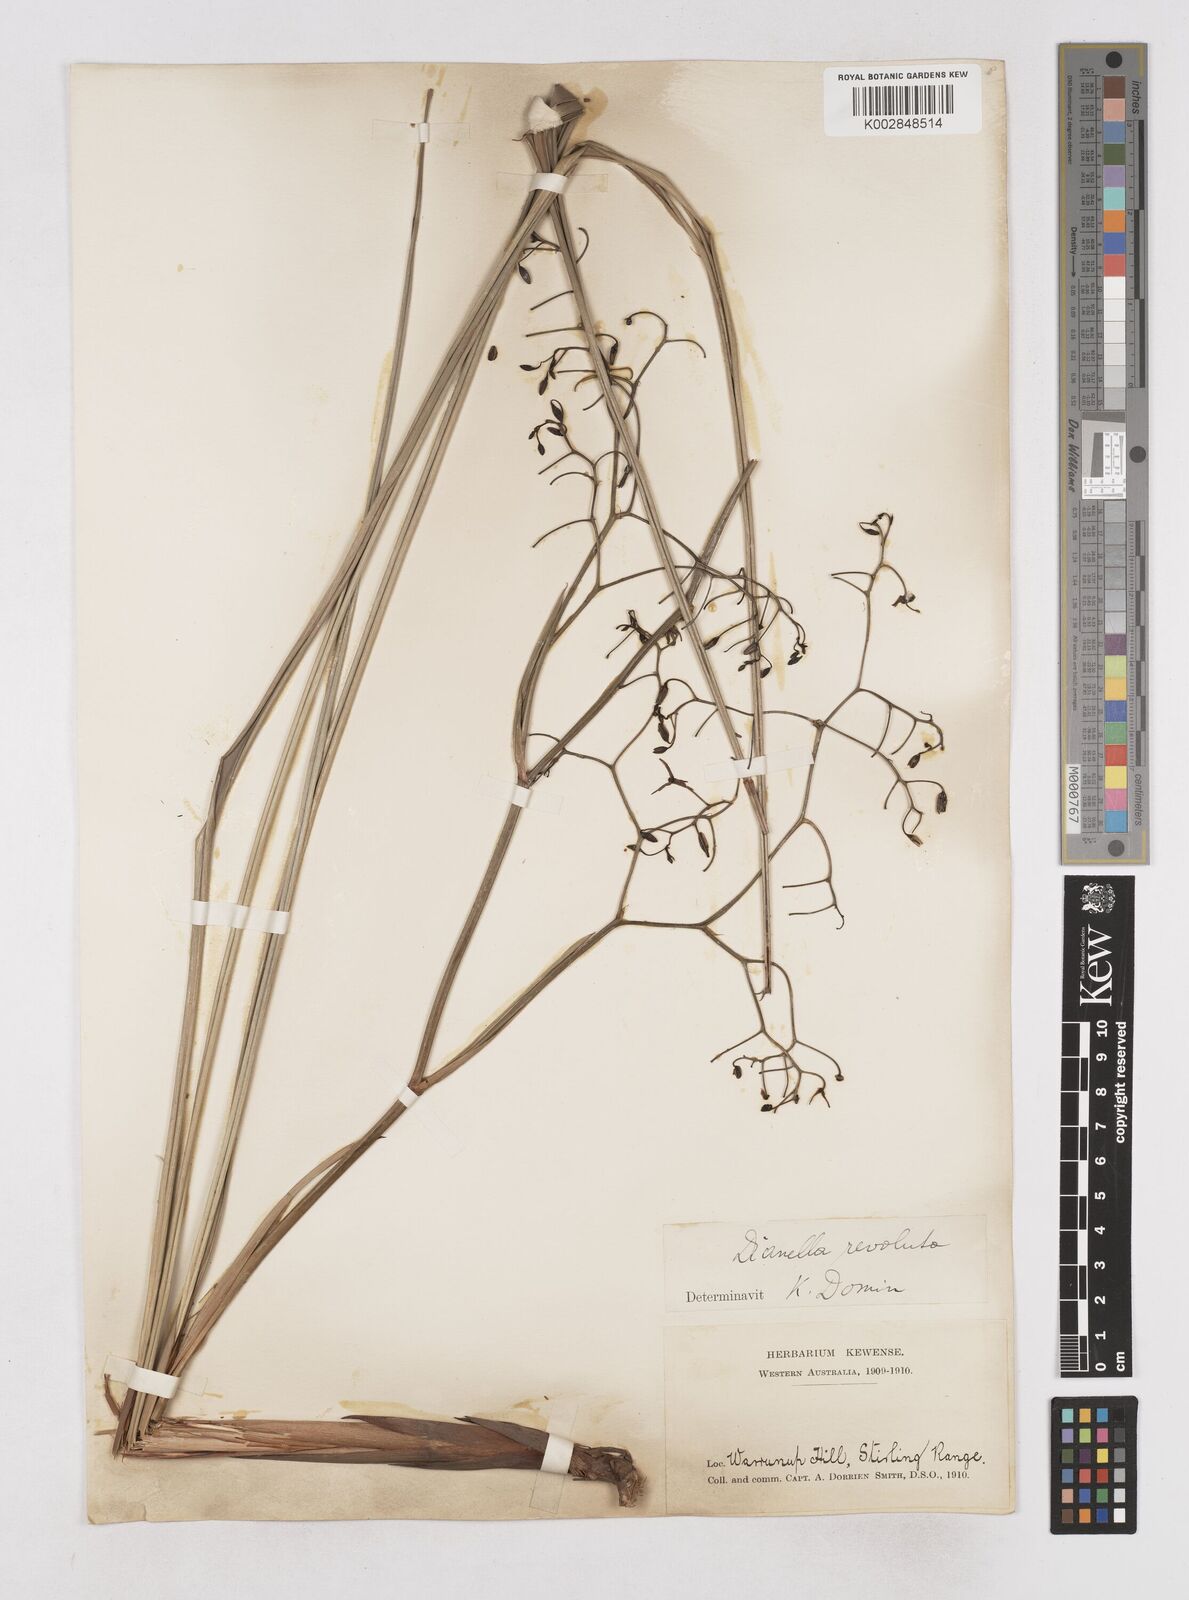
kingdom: Plantae
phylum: Tracheophyta
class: Liliopsida
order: Asparagales
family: Asphodelaceae
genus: Dianella
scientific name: Dianella revoluta
